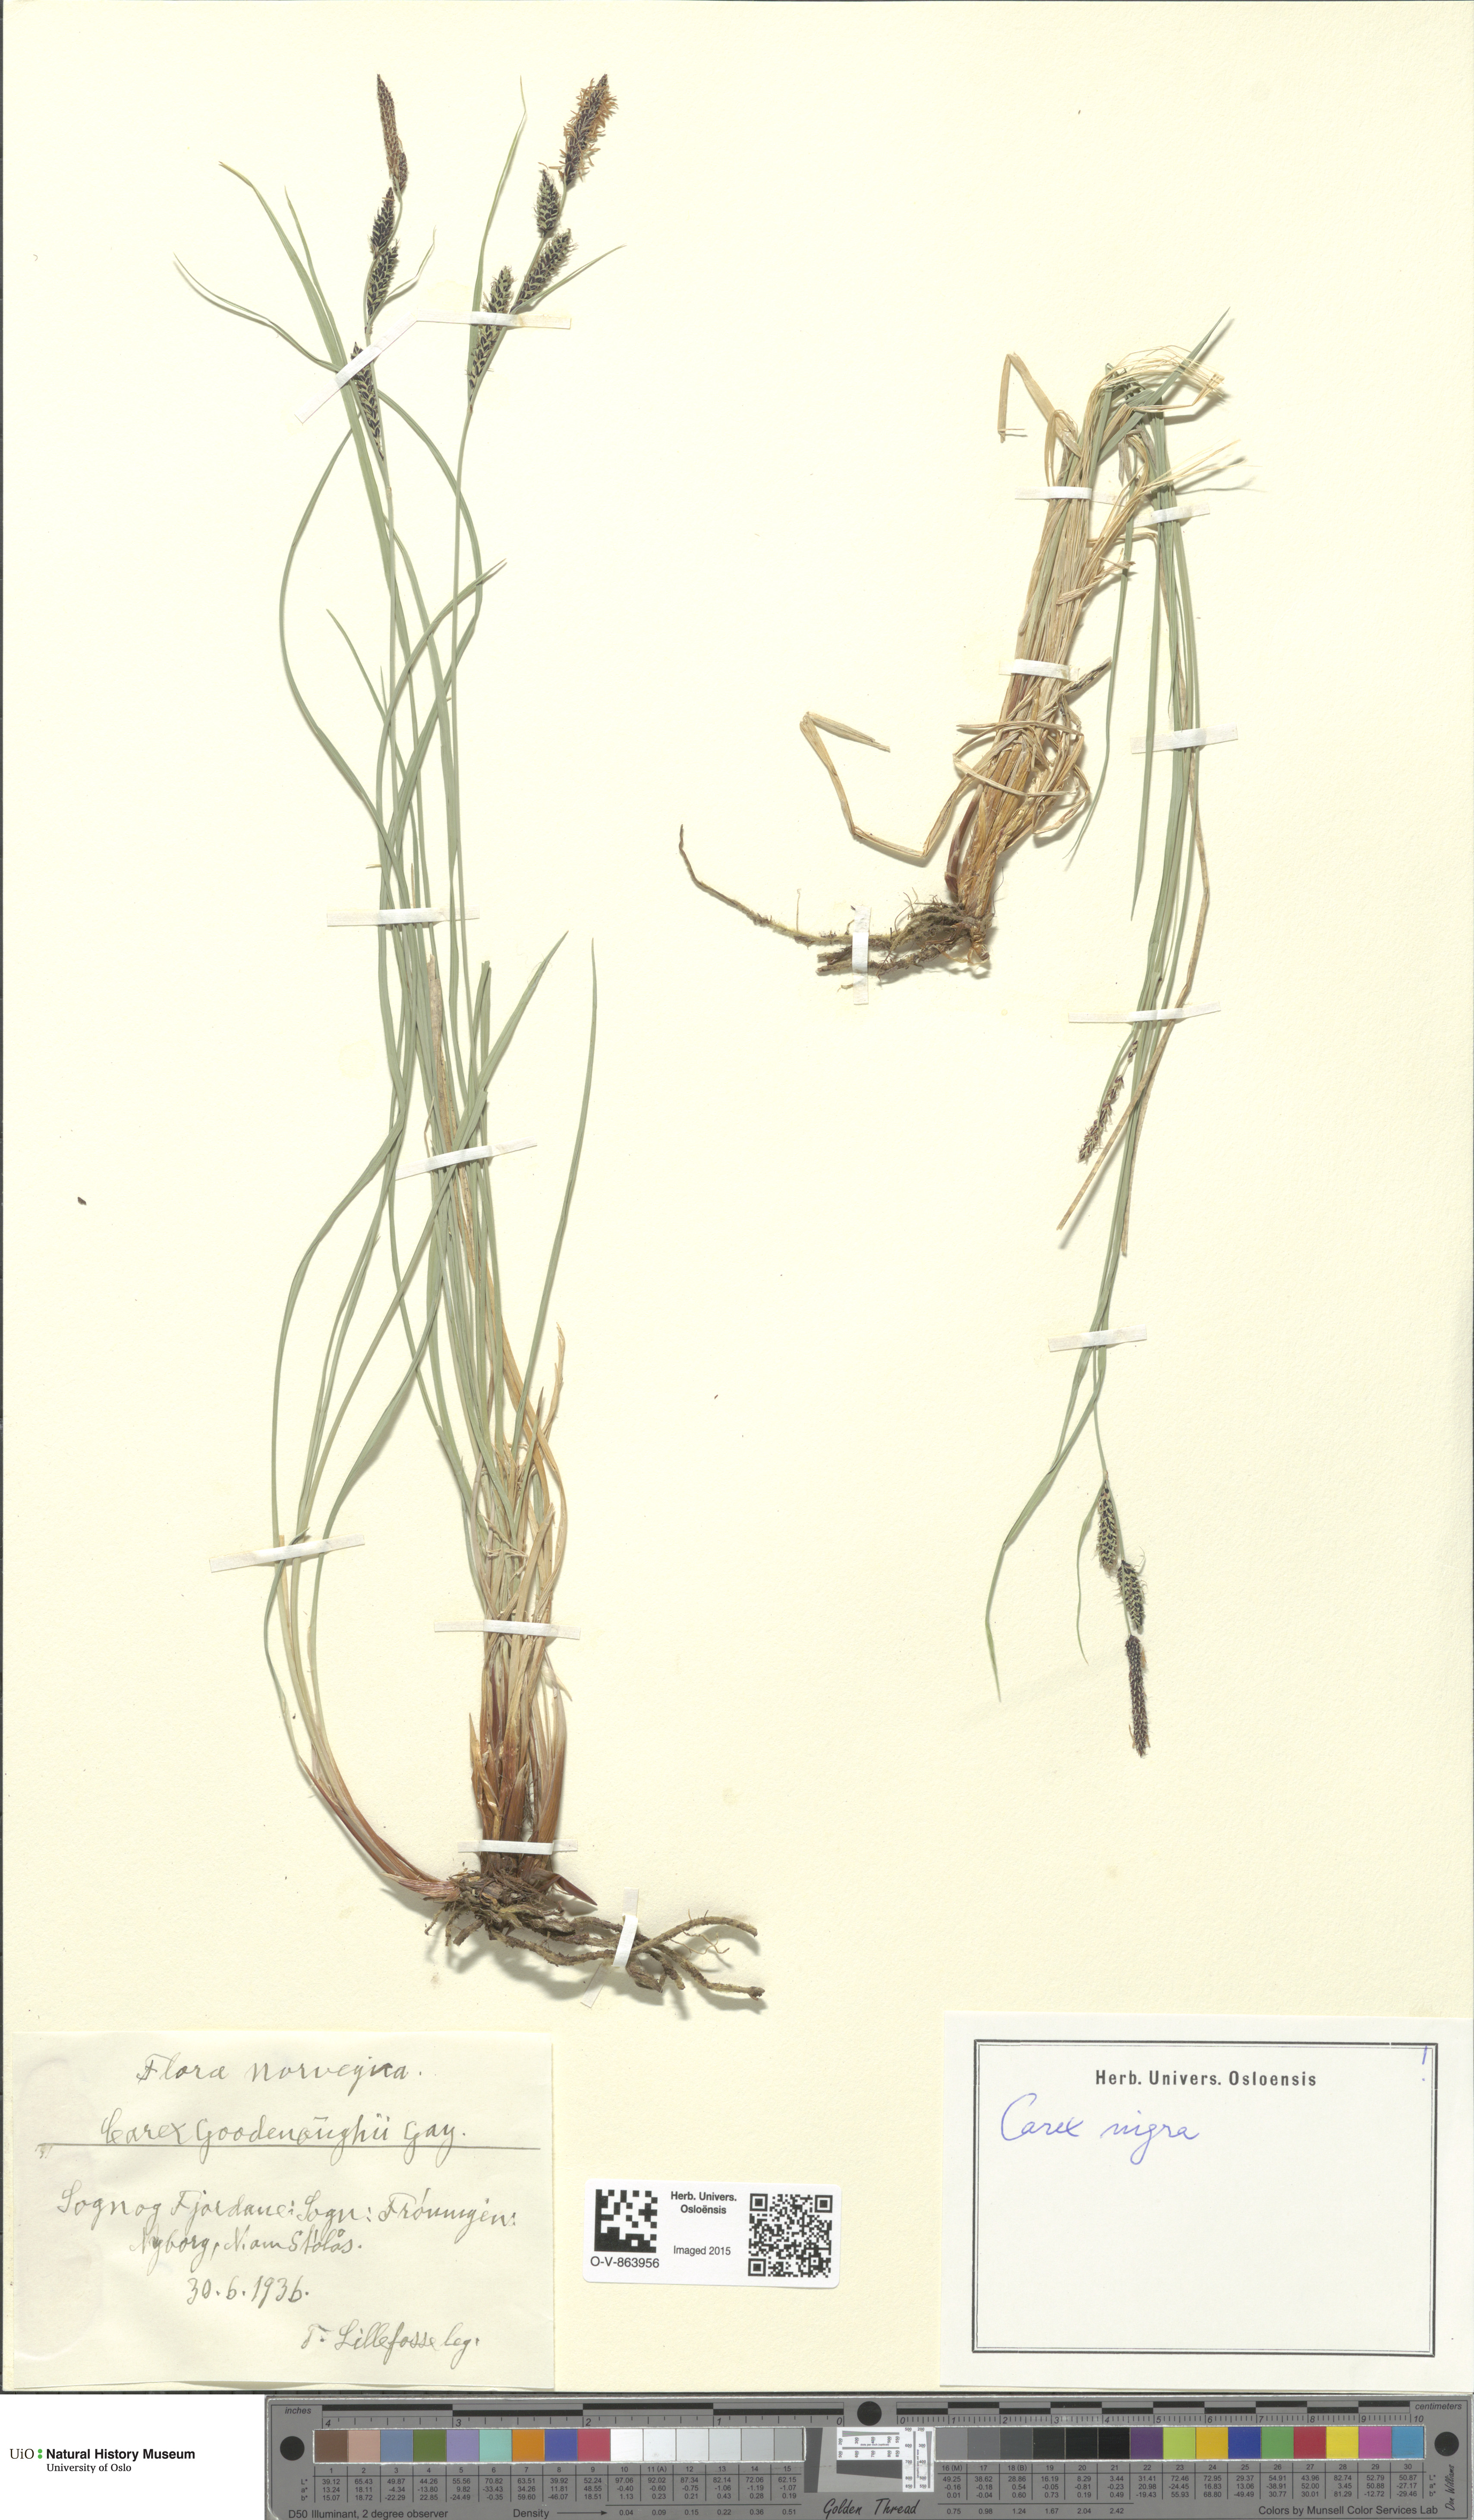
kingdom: Plantae
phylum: Tracheophyta
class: Liliopsida
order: Poales
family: Cyperaceae
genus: Carex
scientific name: Carex nigra
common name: Common sedge
